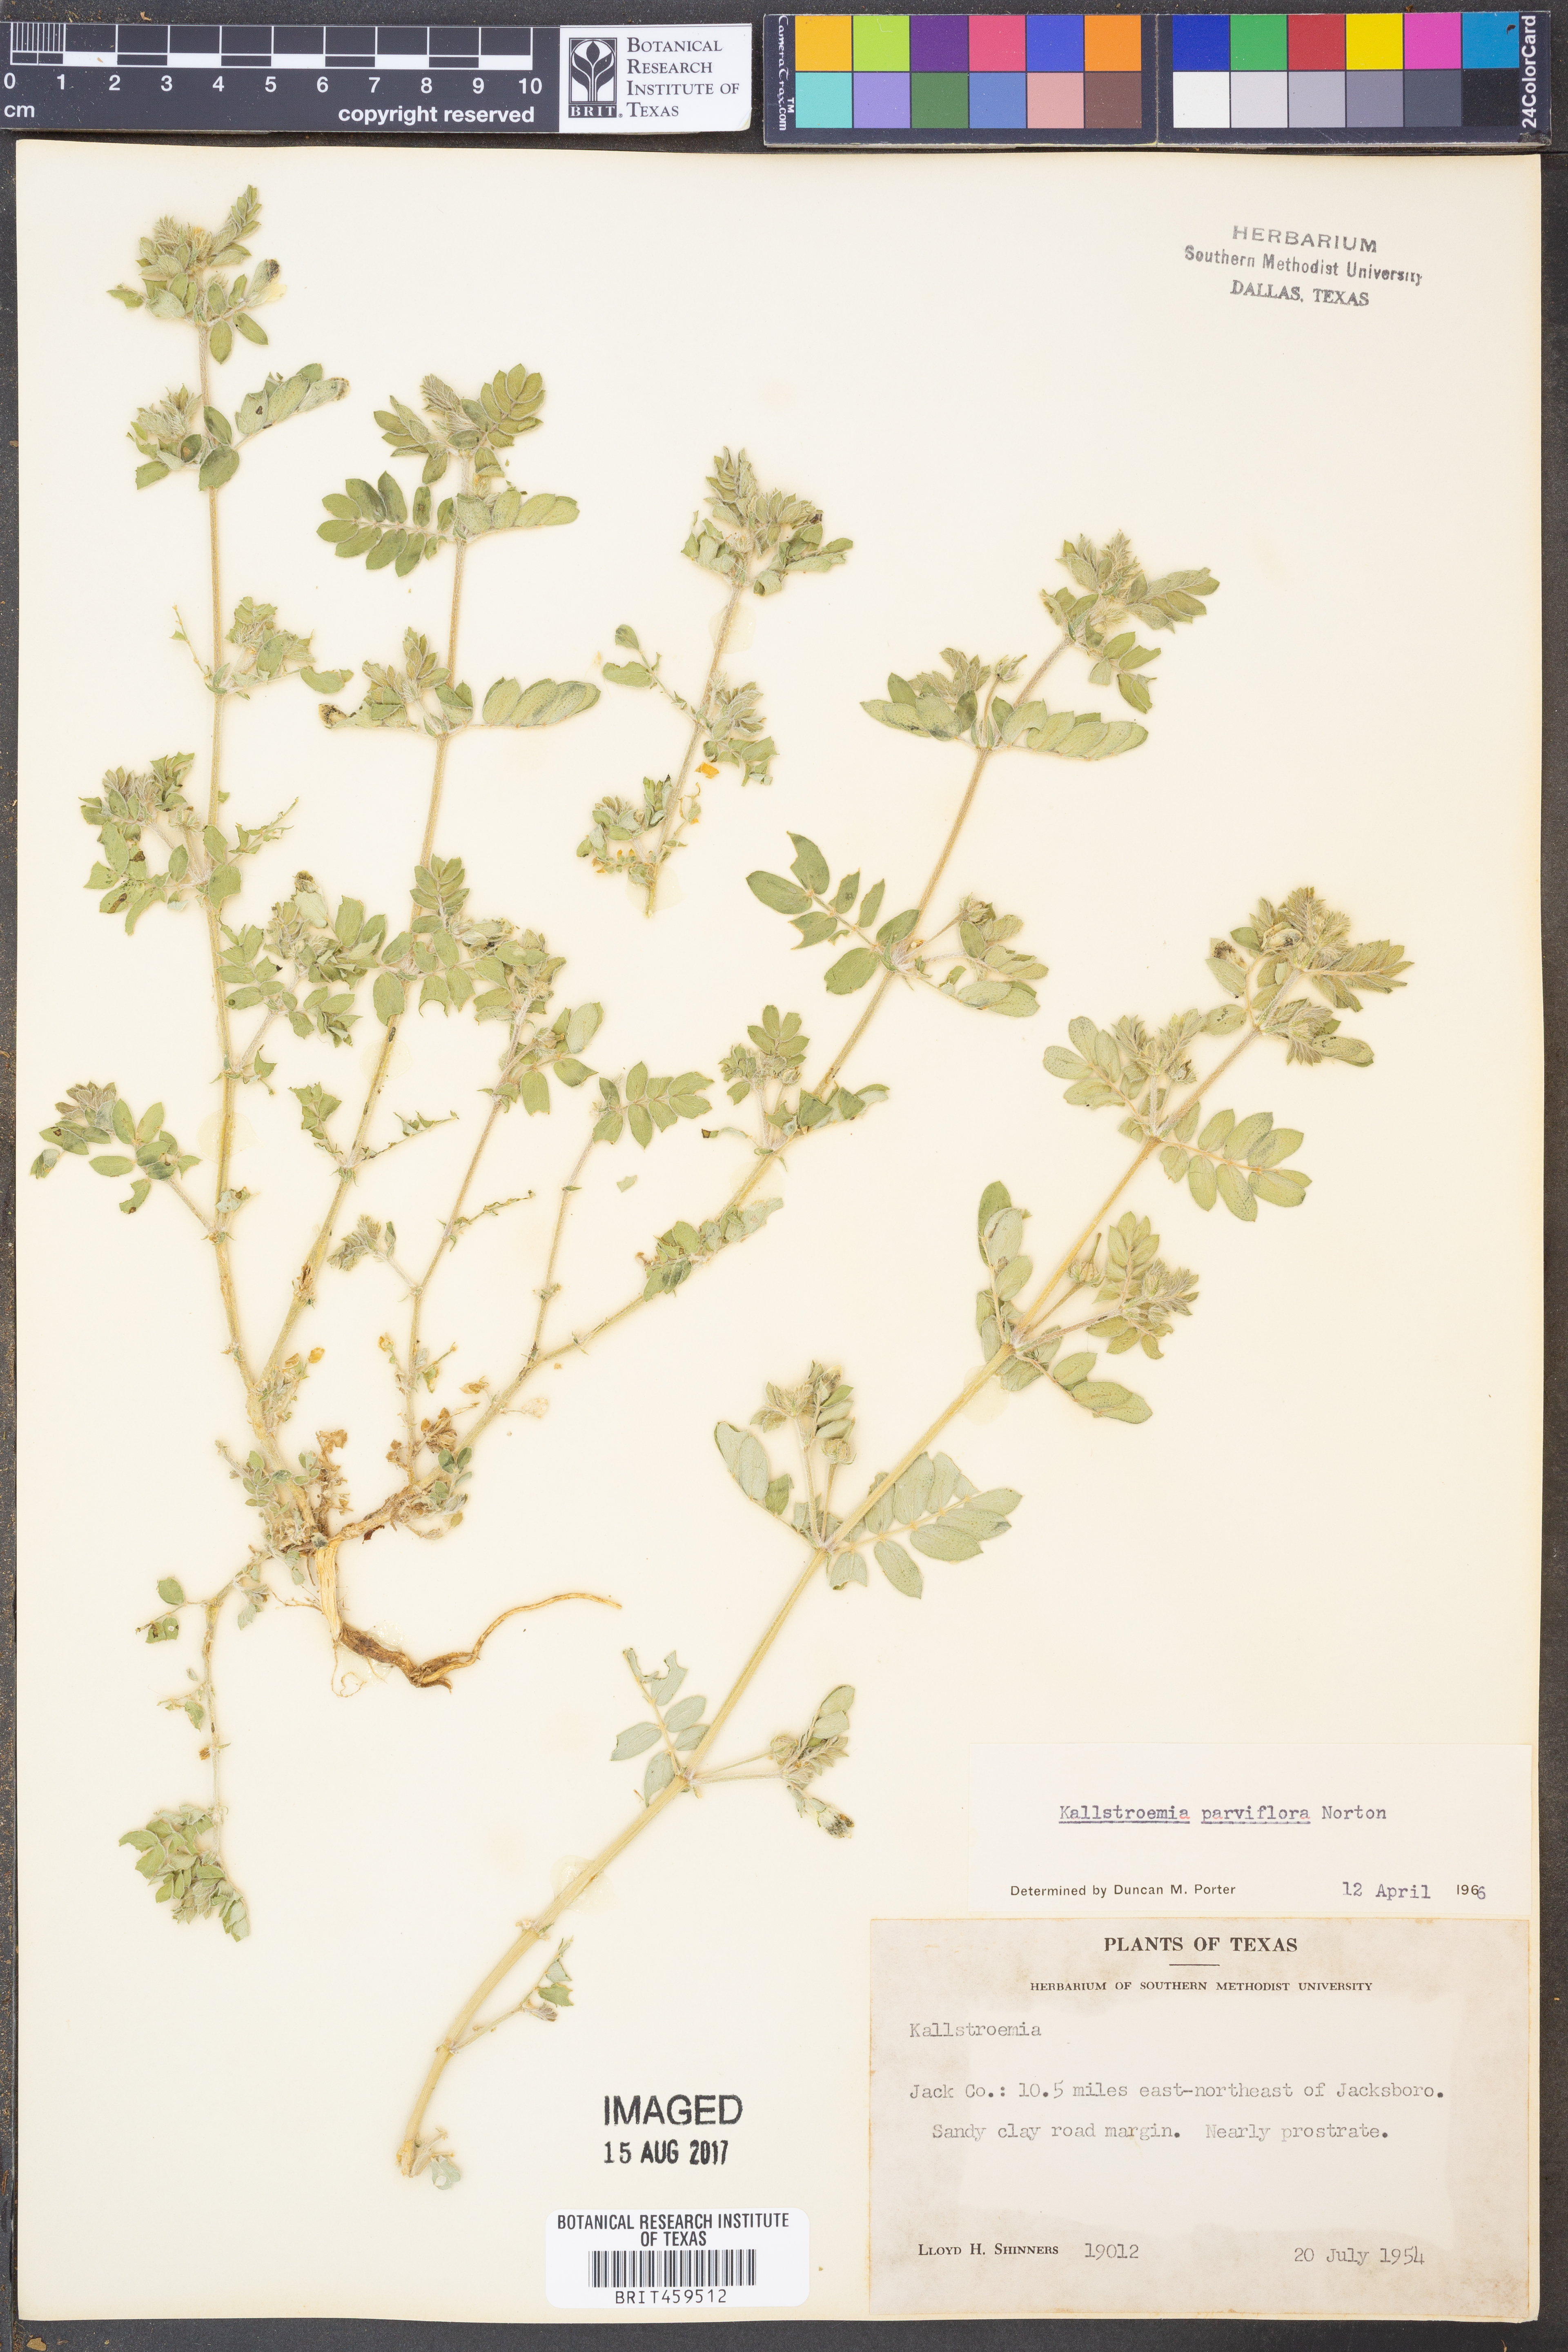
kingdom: Plantae
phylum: Tracheophyta
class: Magnoliopsida
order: Zygophyllales
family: Zygophyllaceae
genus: Kallstroemia
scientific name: Kallstroemia parviflora
